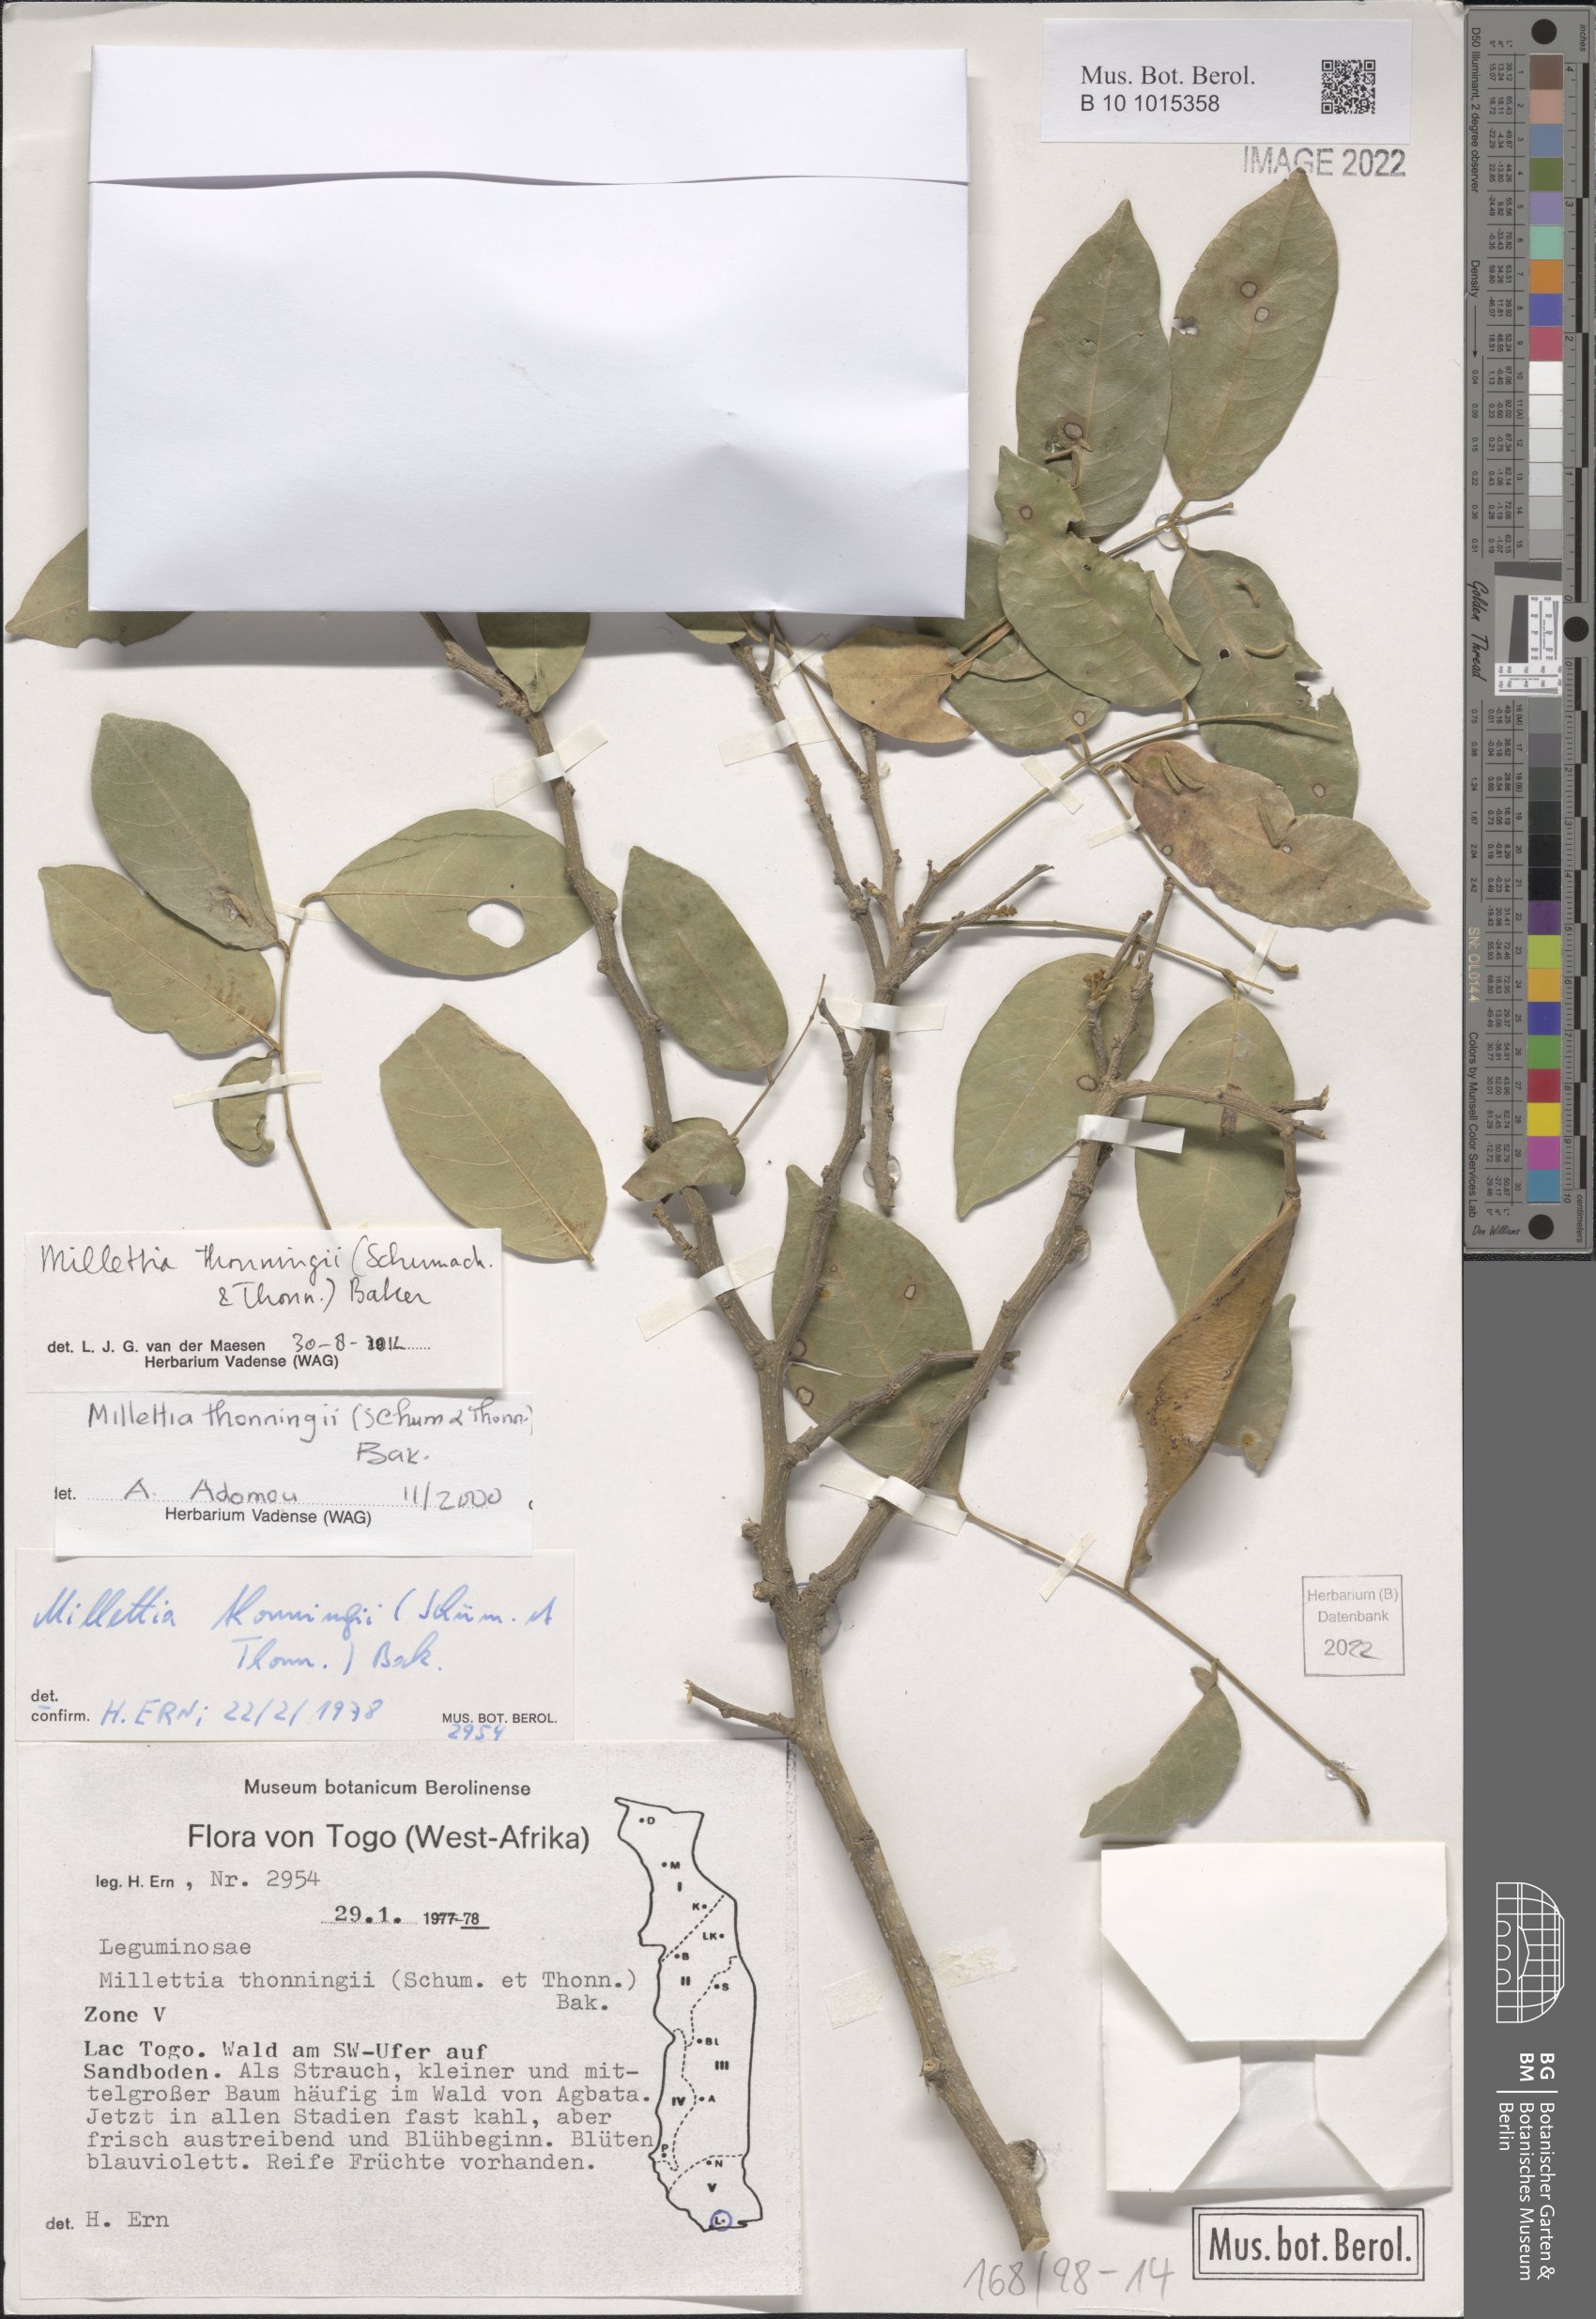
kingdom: Plantae
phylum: Tracheophyta
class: Magnoliopsida
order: Fabales
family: Fabaceae
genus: Millettia
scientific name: Millettia thonningii
